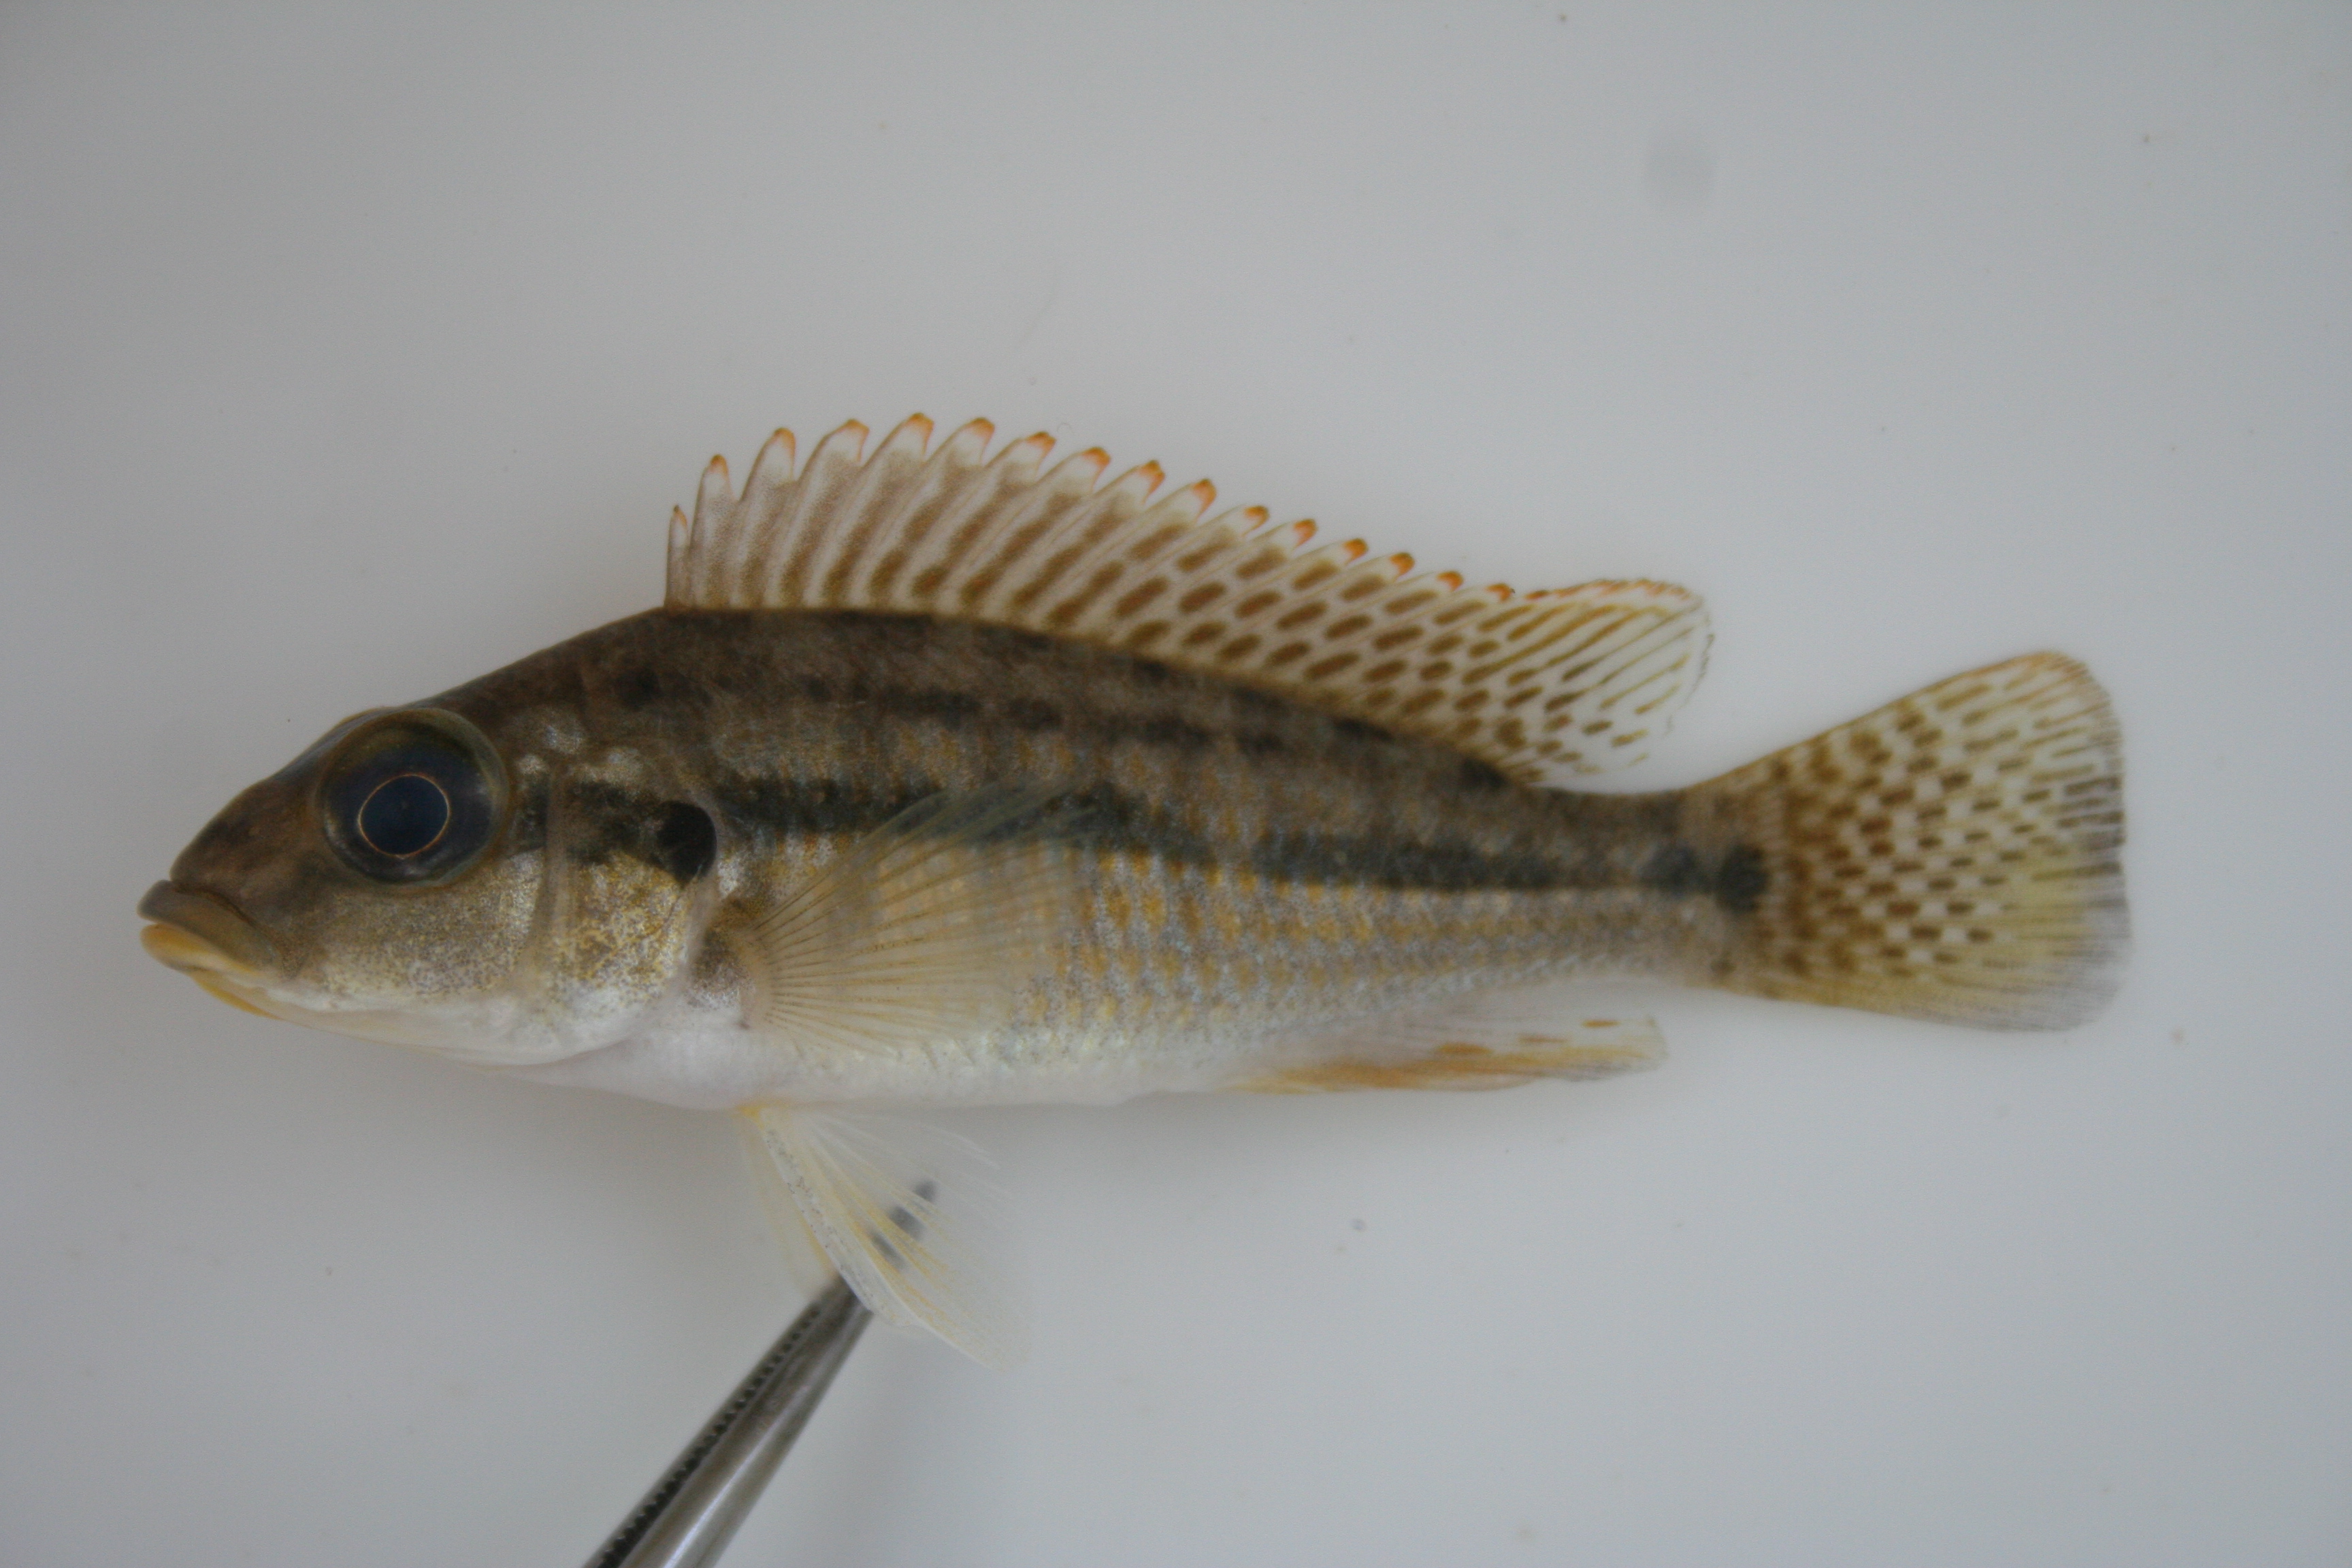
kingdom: Animalia
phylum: Chordata
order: Perciformes
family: Cichlidae
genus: Pharyngochromis
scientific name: Pharyngochromis
